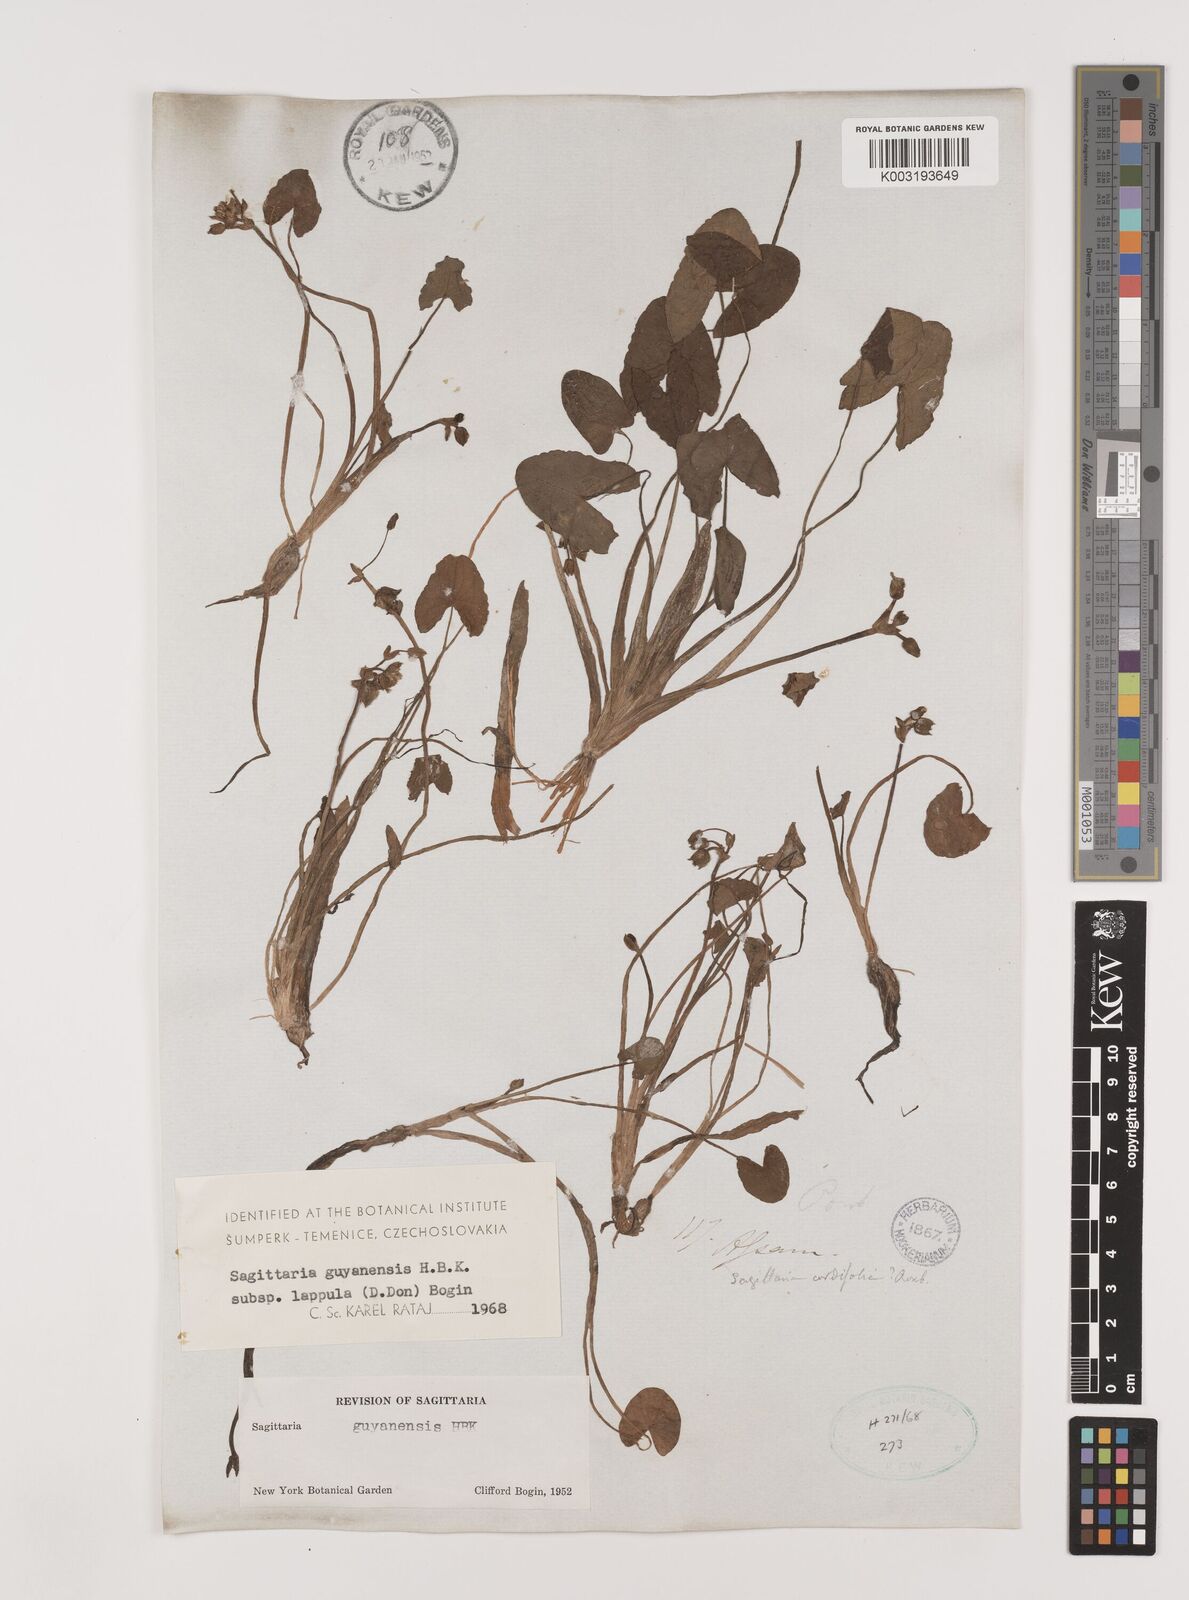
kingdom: Plantae
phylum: Tracheophyta
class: Liliopsida
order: Alismatales
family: Alismataceae
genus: Sagittaria
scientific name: Sagittaria guayanensis
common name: Guyanese arrowhead
